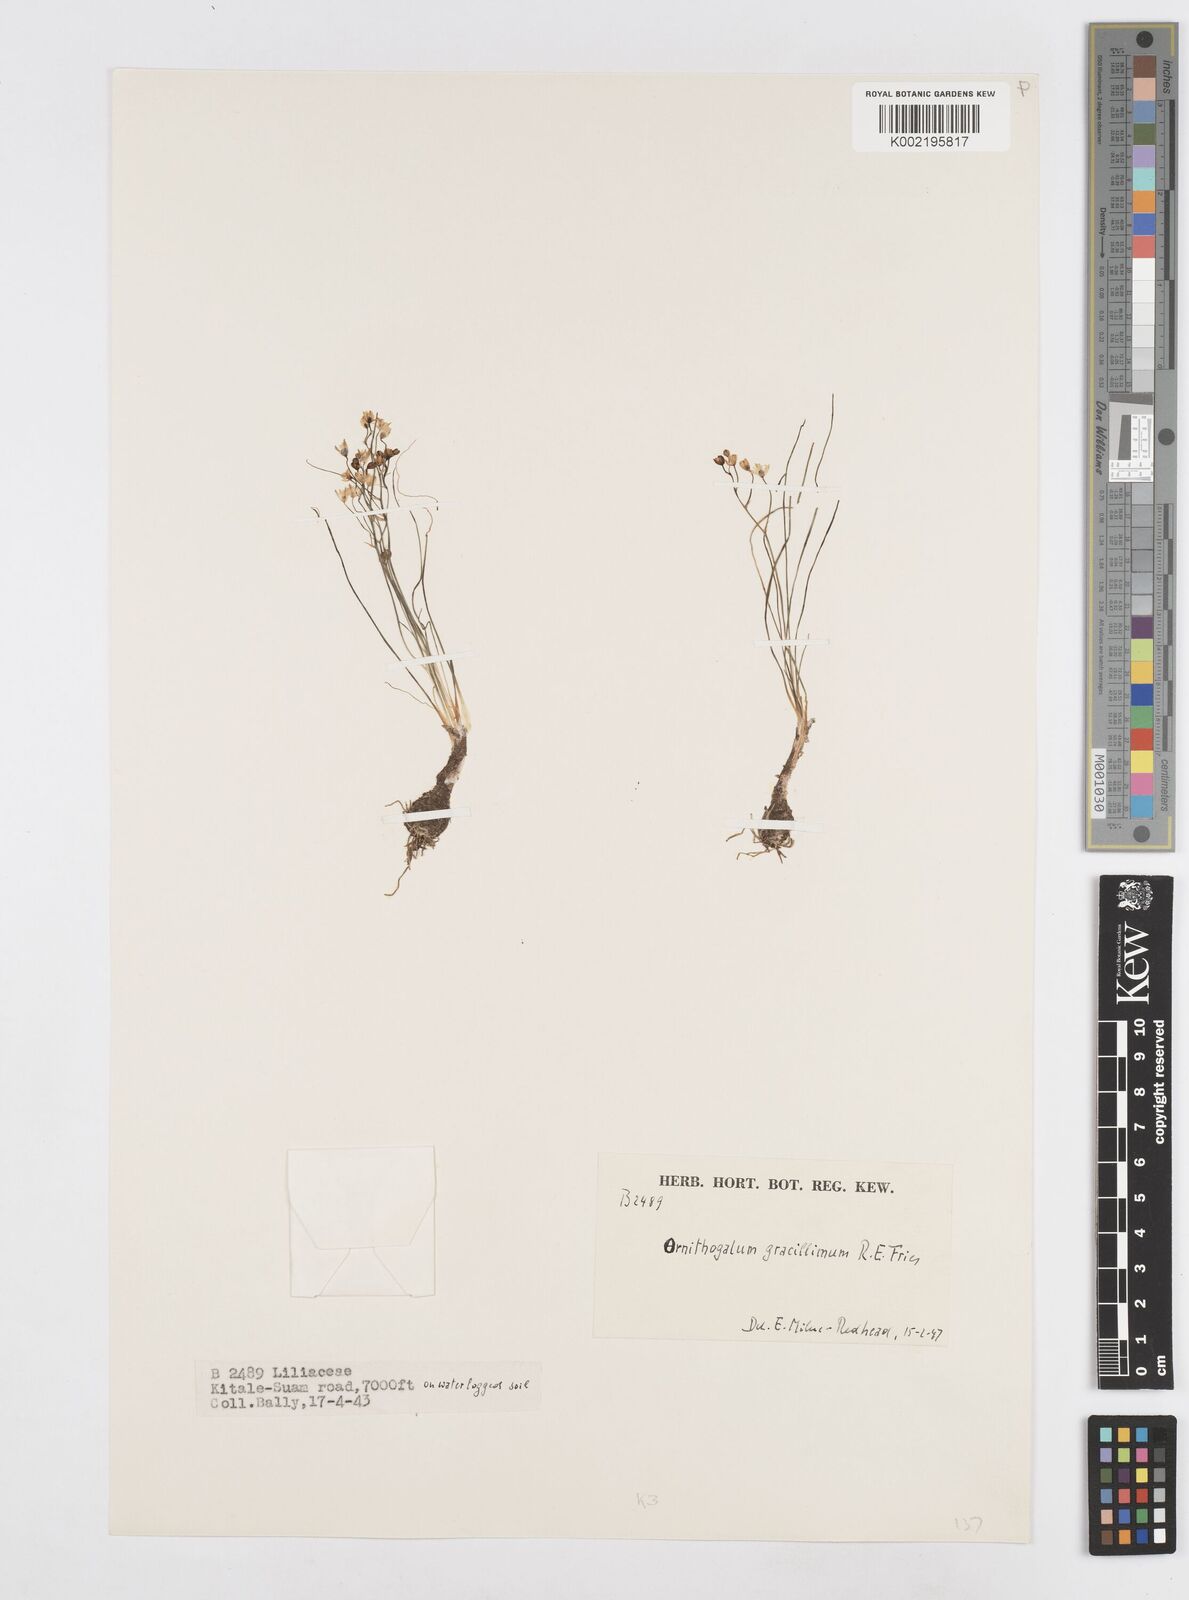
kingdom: Plantae
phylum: Tracheophyta
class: Liliopsida
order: Asparagales
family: Asparagaceae
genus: Ornithogalum
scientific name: Ornithogalum gracillimum
